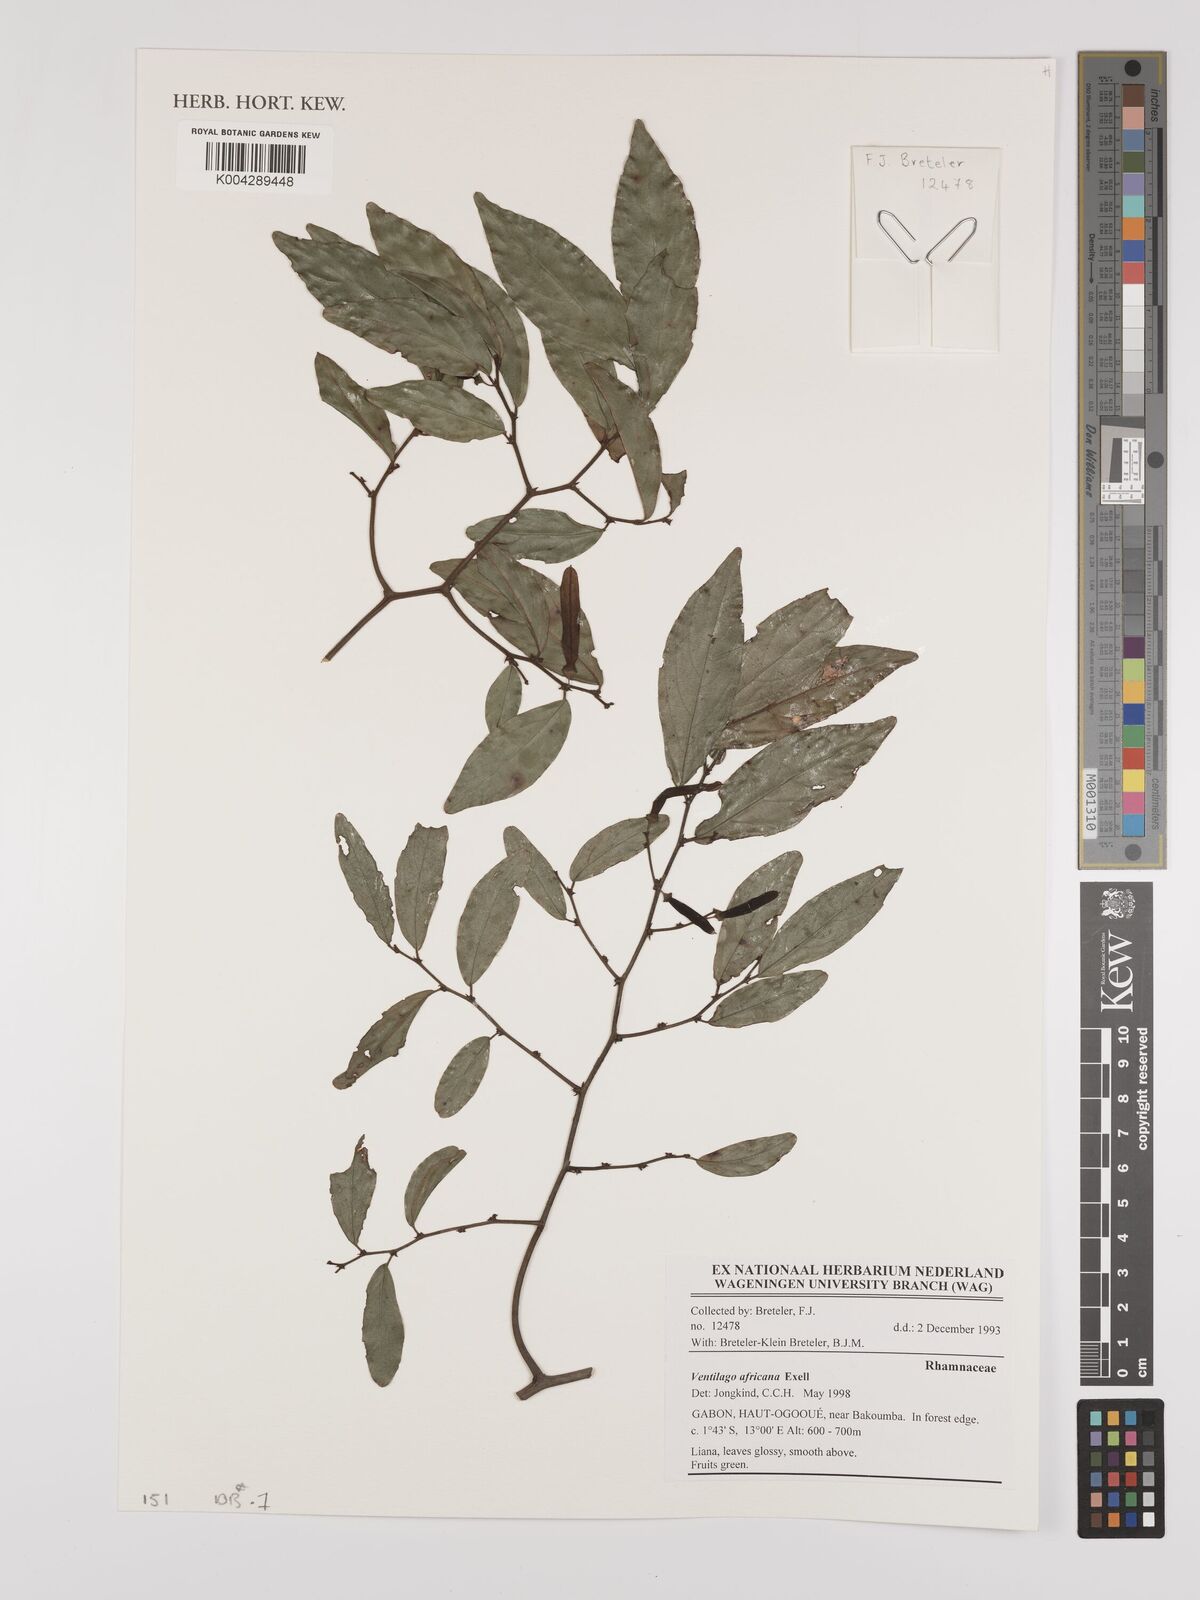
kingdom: Plantae
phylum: Tracheophyta
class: Magnoliopsida
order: Rosales
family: Rhamnaceae
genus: Ventilago
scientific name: Ventilago africana
